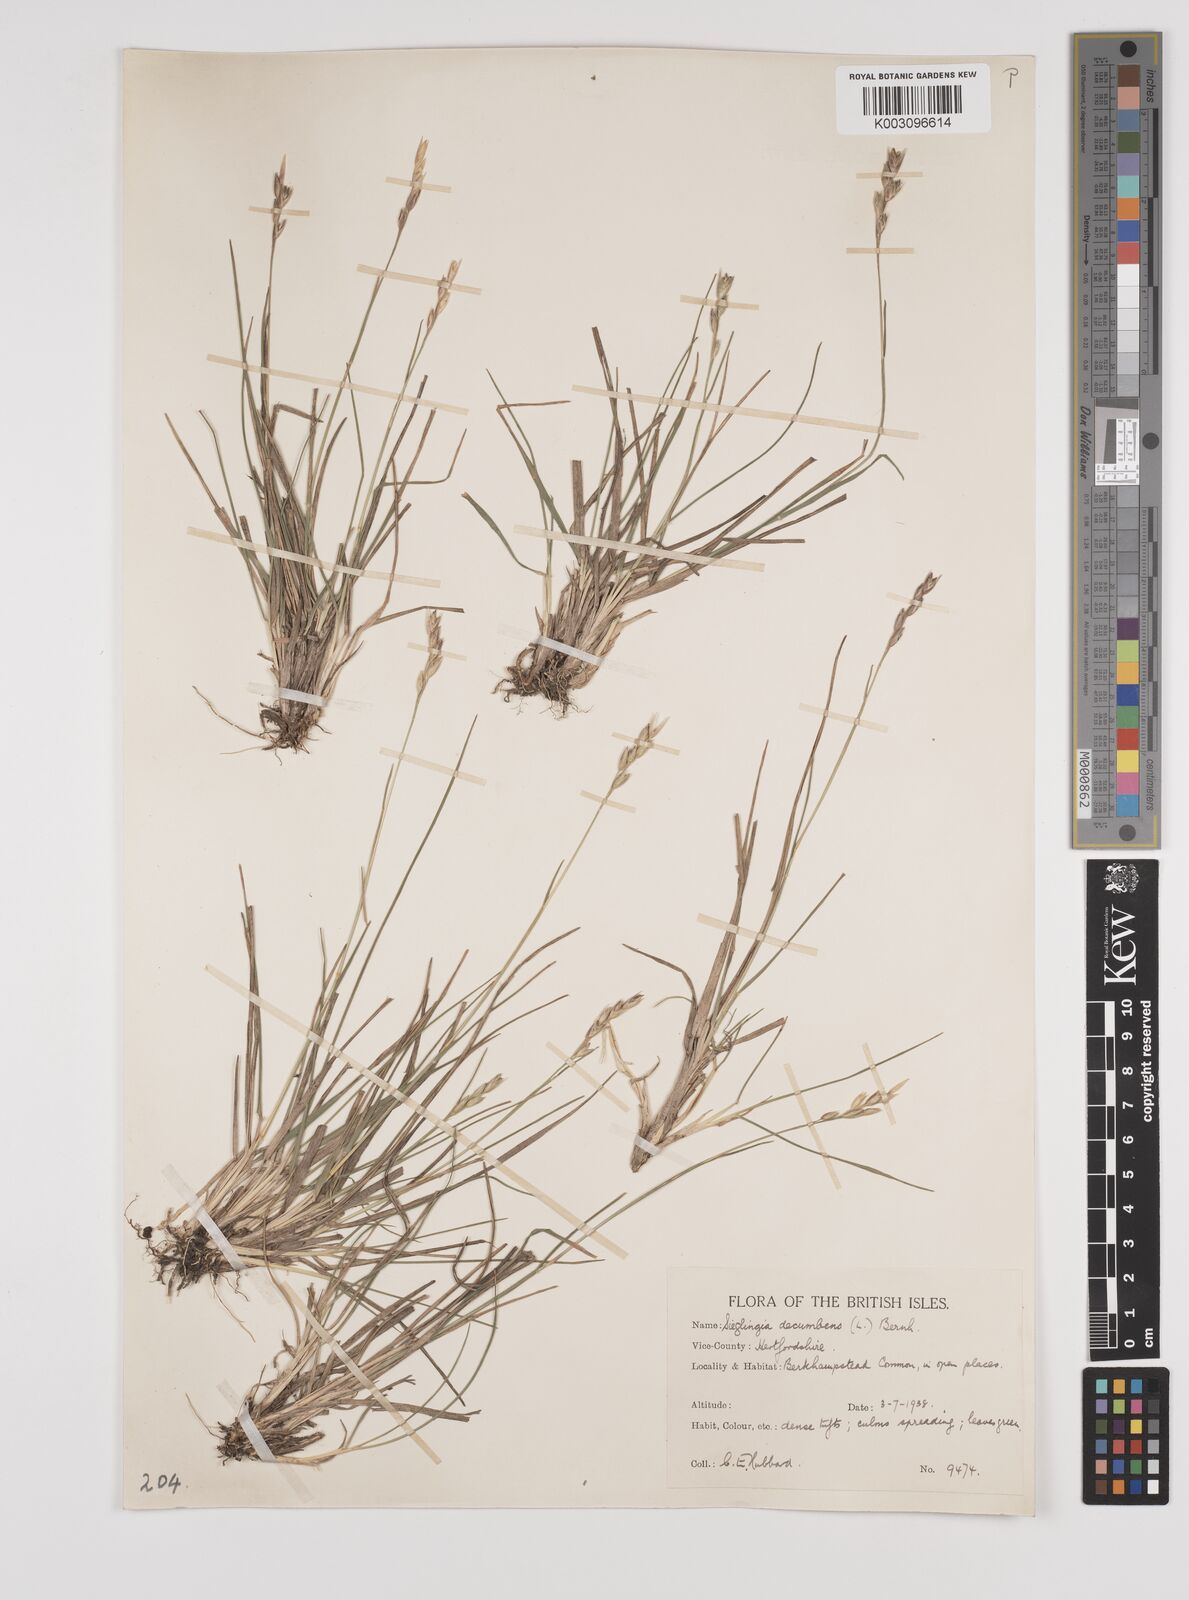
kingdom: Plantae
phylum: Tracheophyta
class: Liliopsida
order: Poales
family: Poaceae
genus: Danthonia
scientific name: Danthonia decumbens
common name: Common heathgrass
